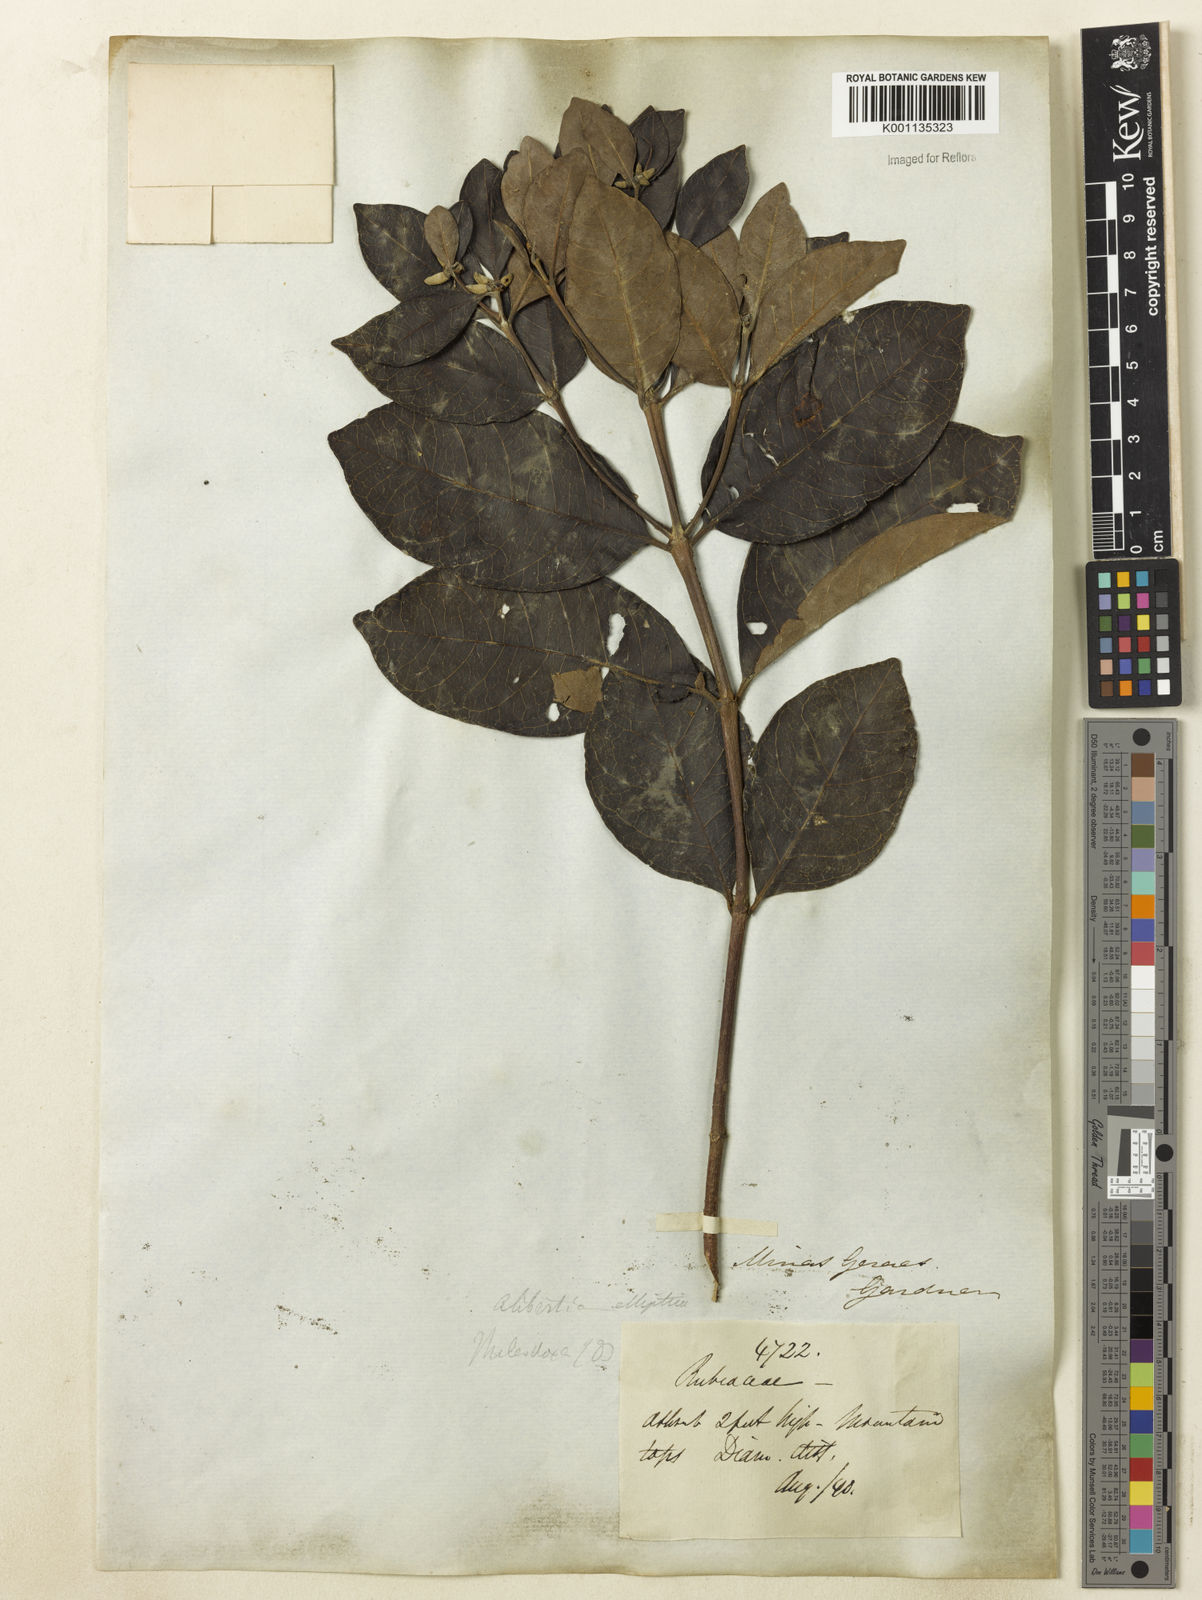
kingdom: Plantae
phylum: Tracheophyta
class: Magnoliopsida
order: Gentianales
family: Rubiaceae
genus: Cordiera
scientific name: Cordiera elliptica
